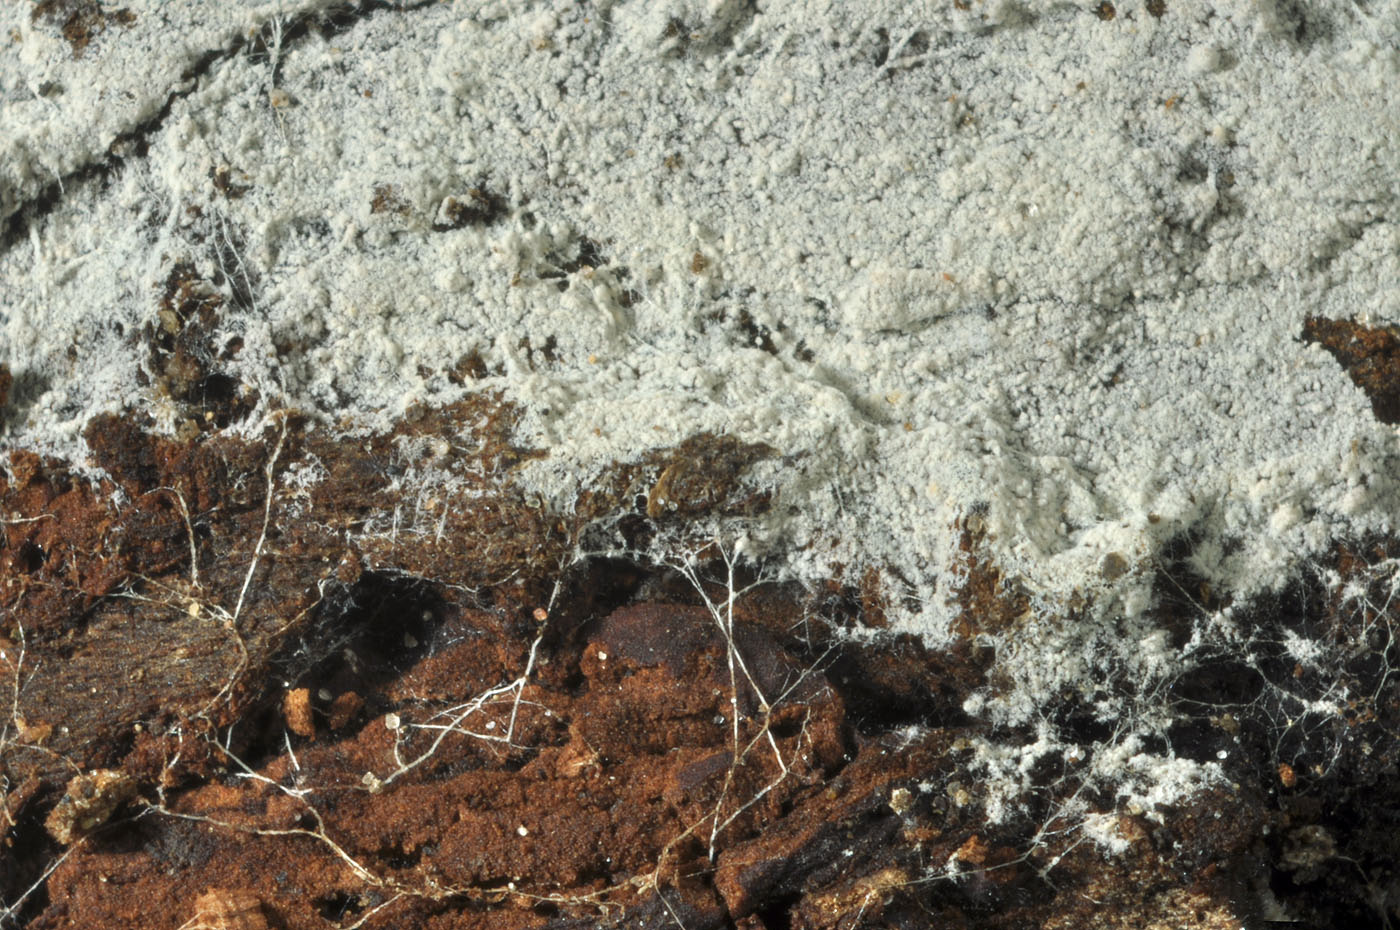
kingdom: Fungi
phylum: Basidiomycota
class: Agaricomycetes
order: Agaricales
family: Stephanosporaceae
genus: Cristinia
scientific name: Cristinia rhenana
